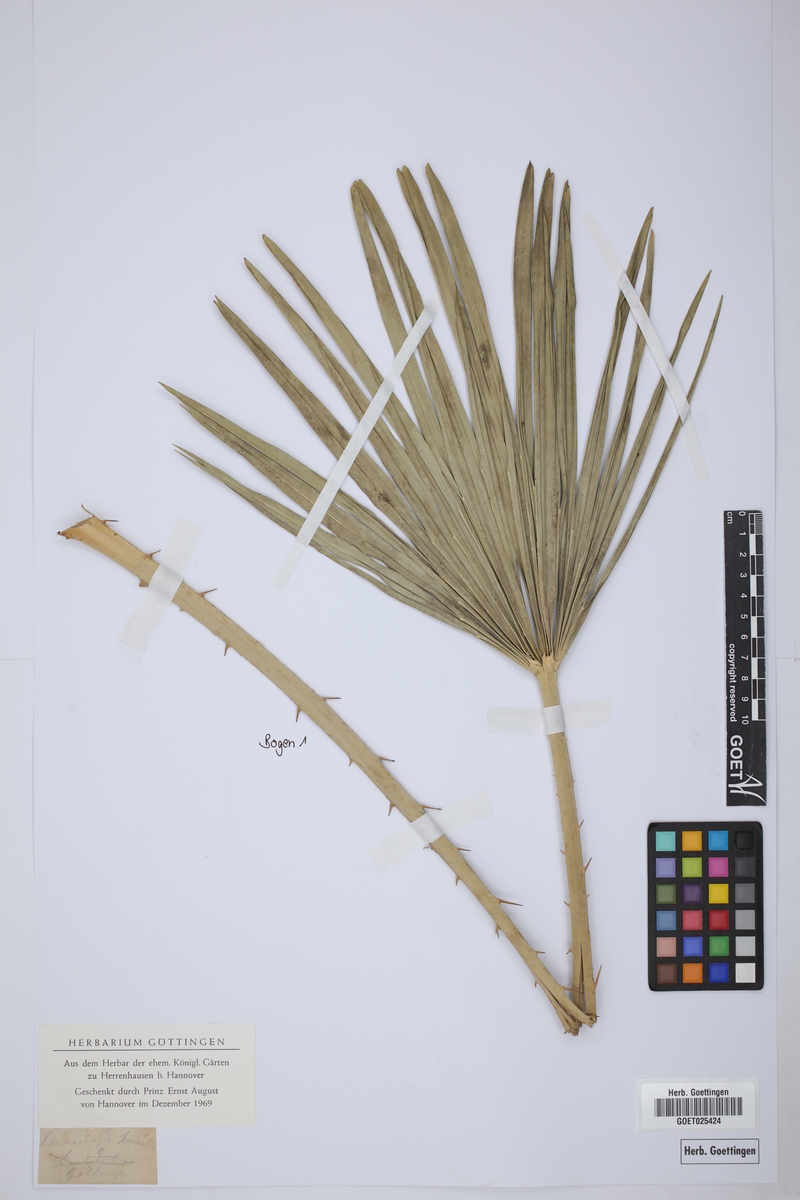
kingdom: Plantae
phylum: Tracheophyta
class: Liliopsida
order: Arecales
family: Arecaceae
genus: Chamaerops
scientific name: Chamaerops humilis
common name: Dwarf fan palm
